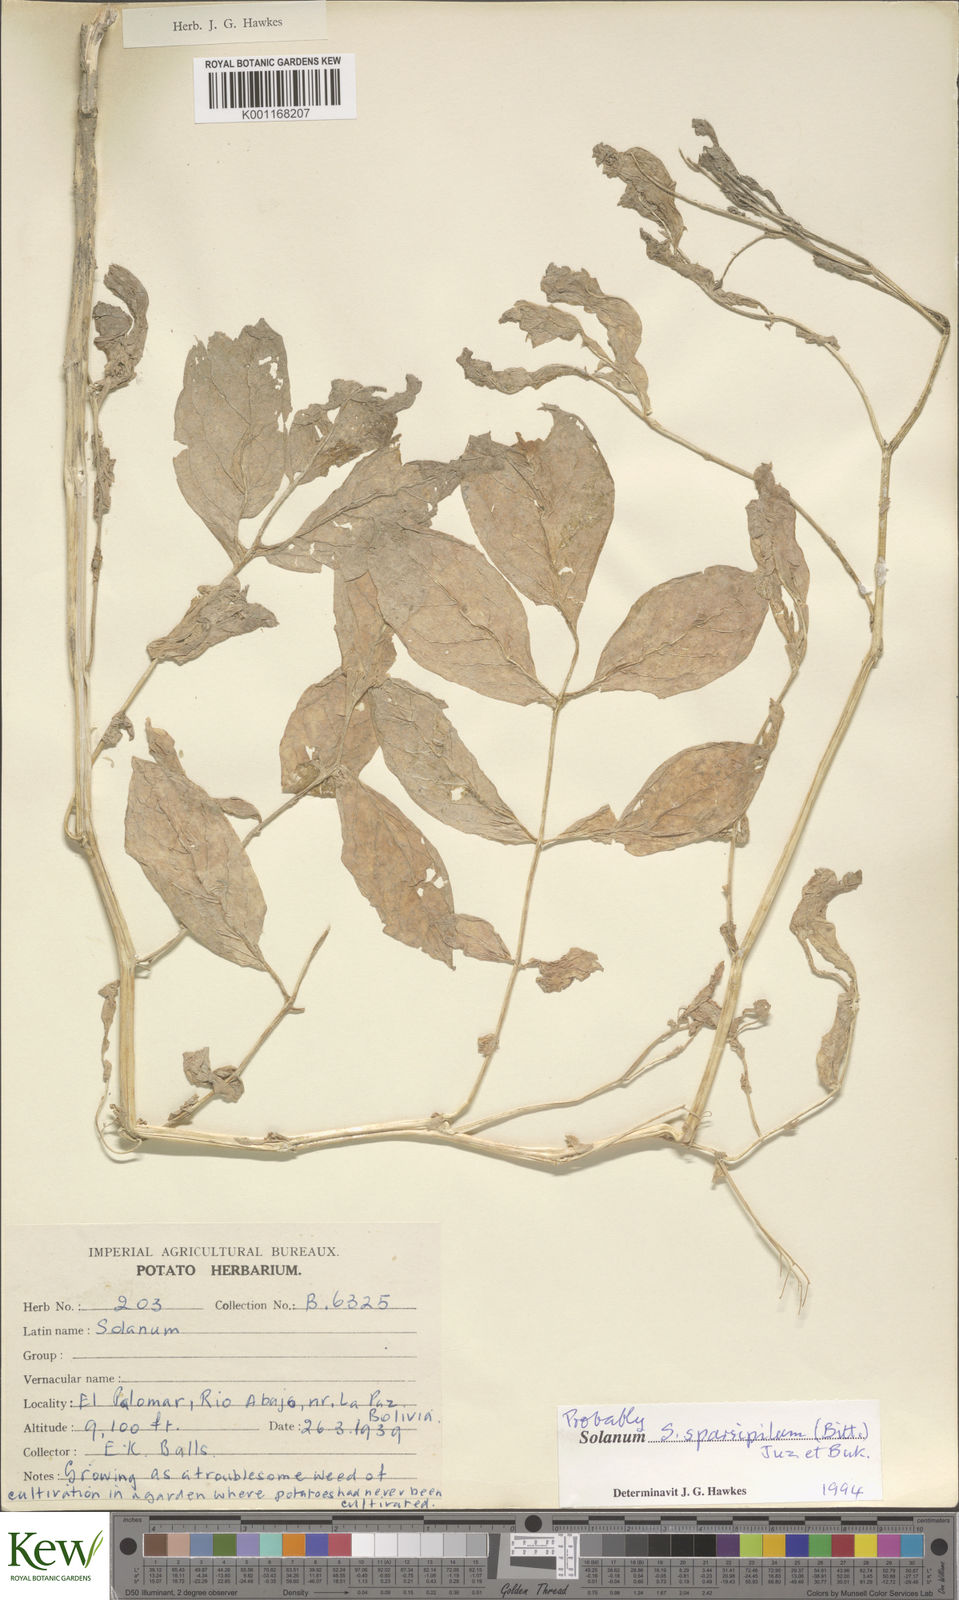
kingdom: Plantae
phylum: Tracheophyta
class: Magnoliopsida
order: Solanales
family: Solanaceae
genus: Solanum
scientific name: Solanum tuberosum
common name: Potato
